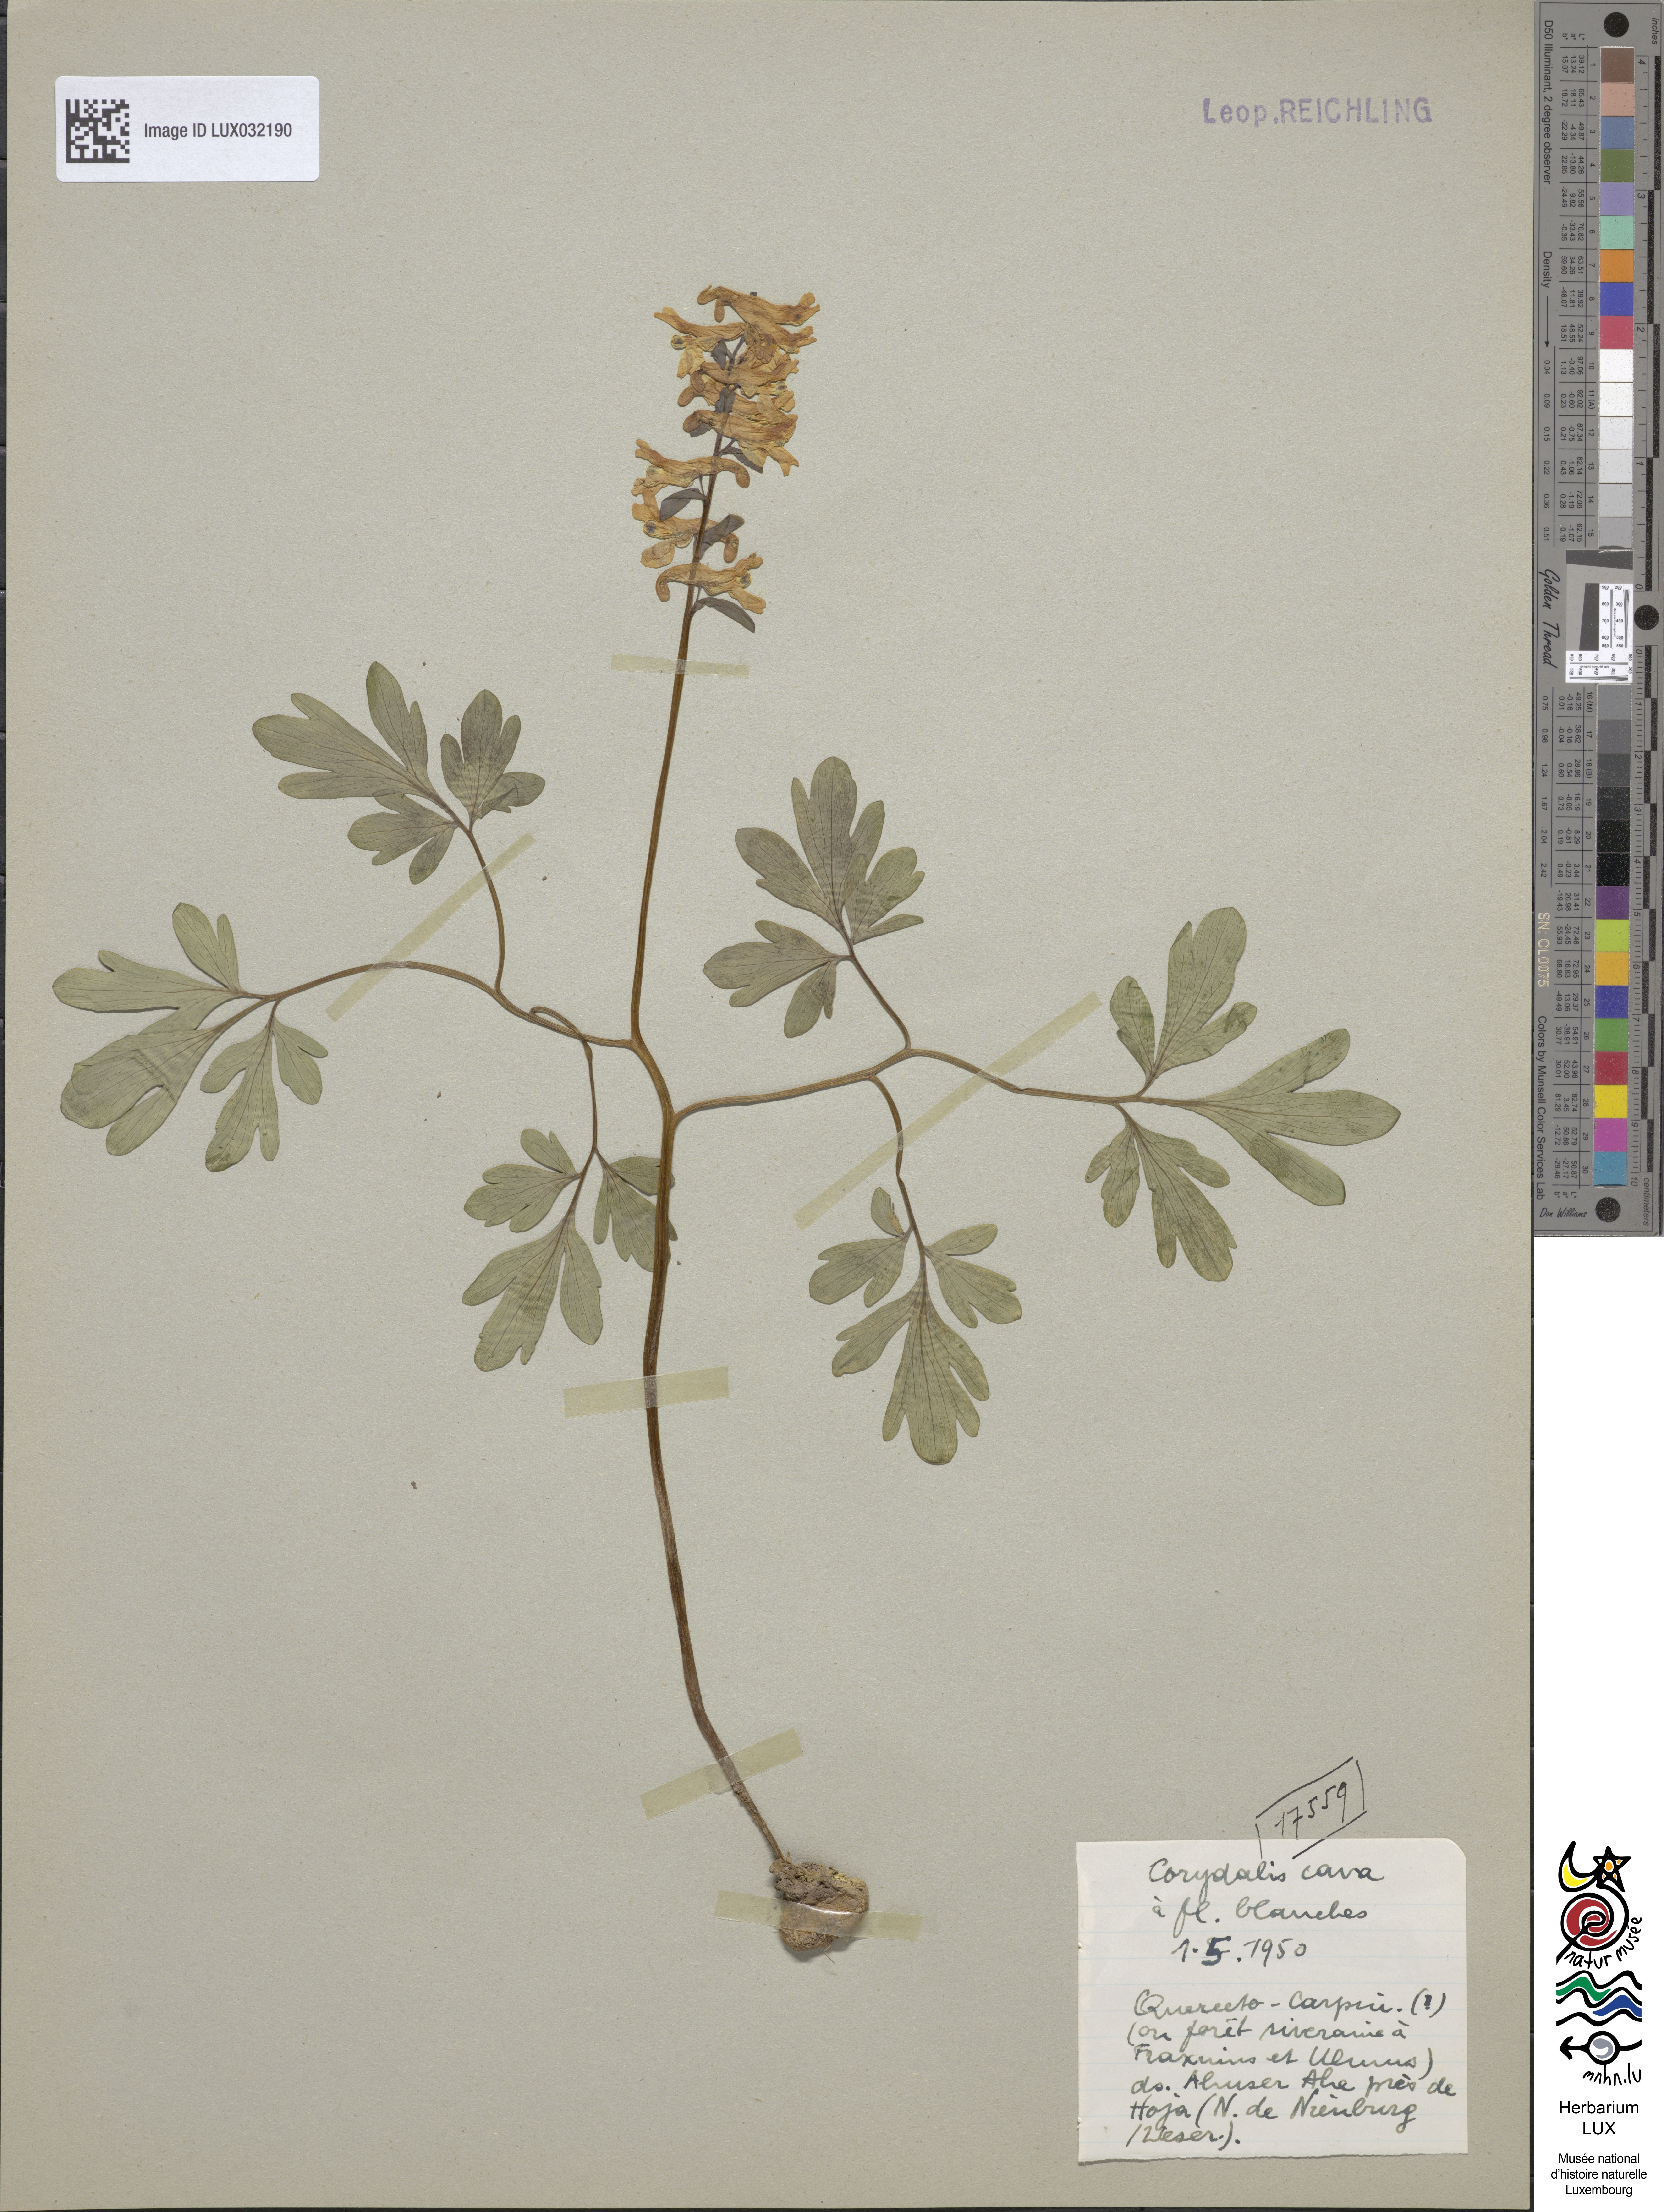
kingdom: Plantae
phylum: Tracheophyta
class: Magnoliopsida
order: Ranunculales
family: Papaveraceae
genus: Corydalis
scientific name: Corydalis cava
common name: Hollowroot
